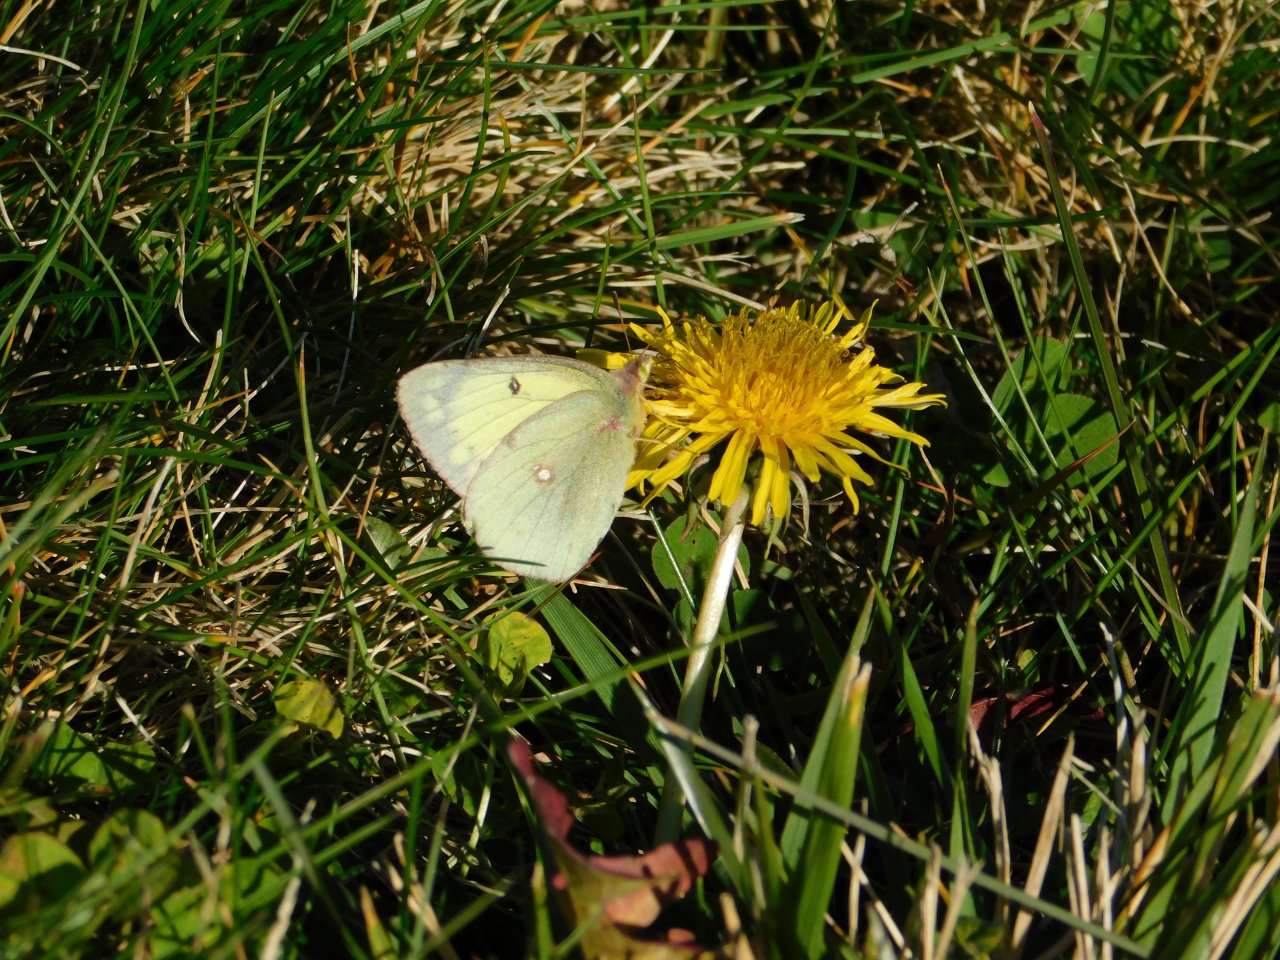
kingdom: Animalia
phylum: Arthropoda
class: Insecta
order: Lepidoptera
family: Pieridae
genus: Colias
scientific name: Colias philodice
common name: Clouded Sulphur
